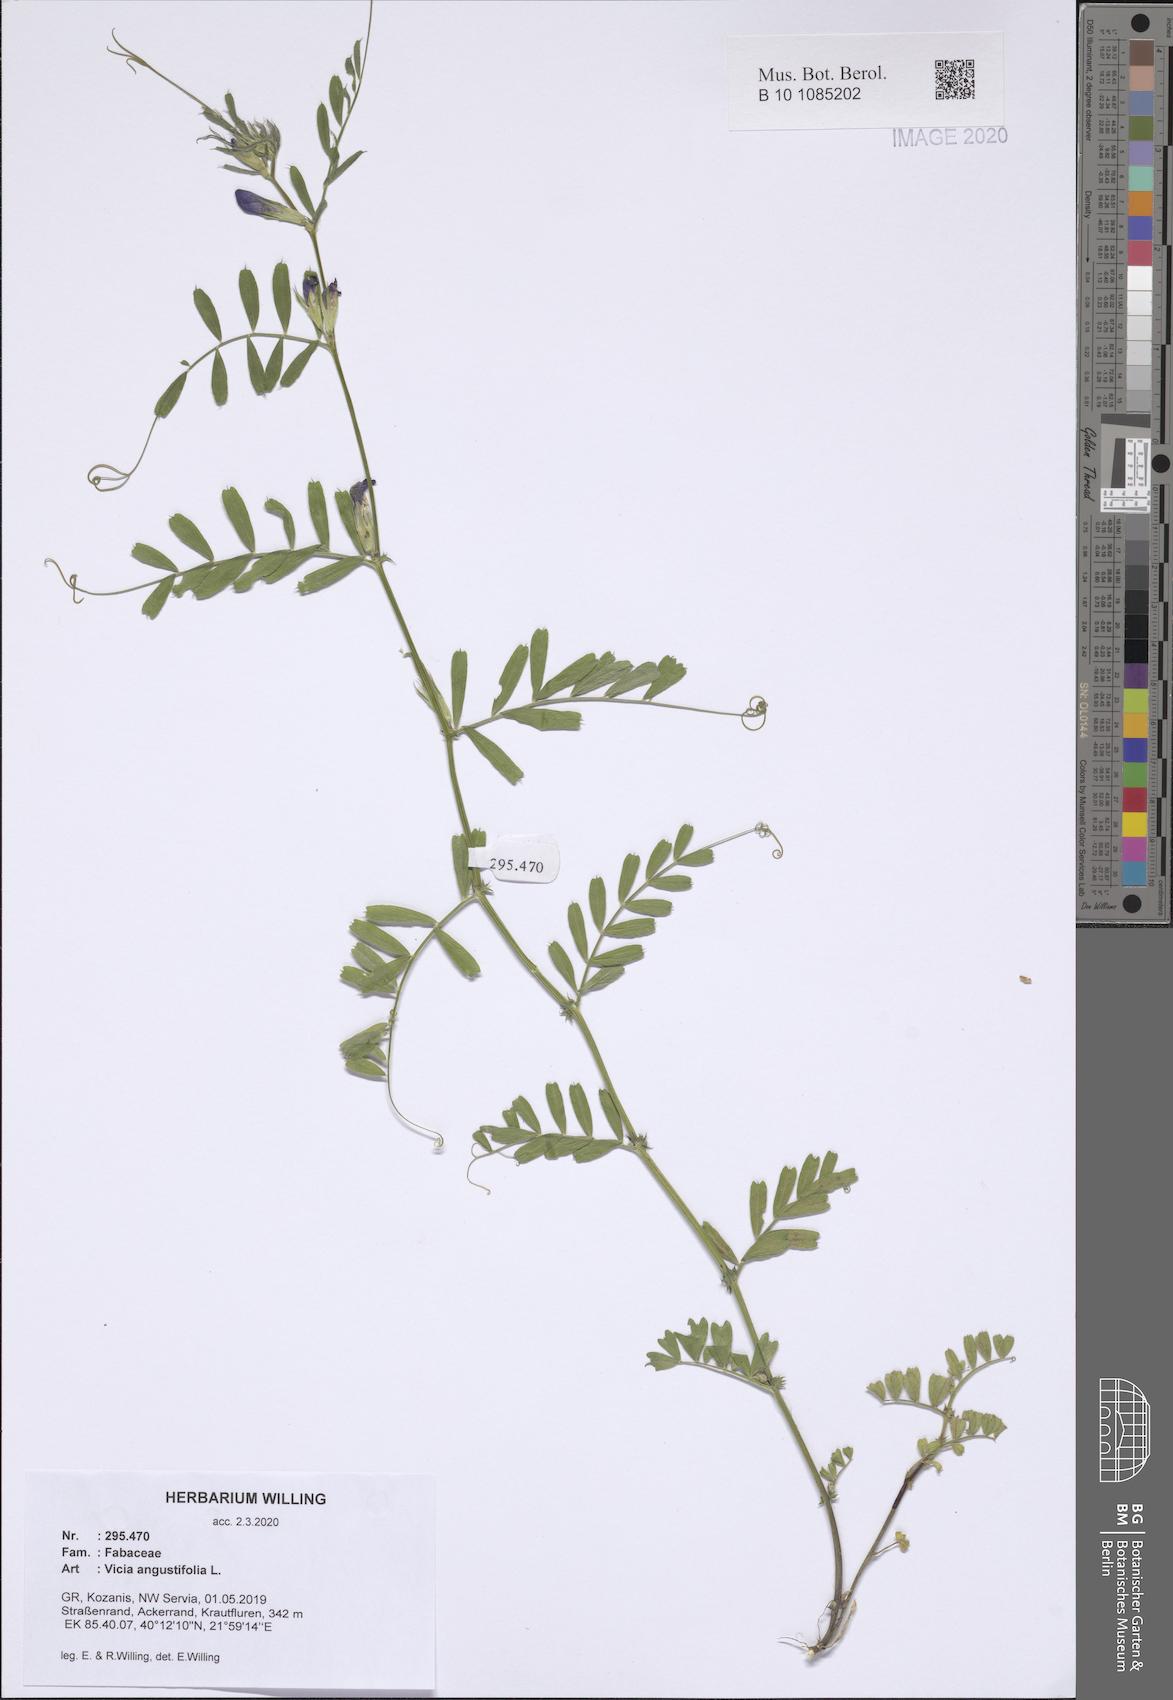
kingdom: Plantae
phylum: Tracheophyta
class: Magnoliopsida
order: Fabales
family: Fabaceae
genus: Vicia
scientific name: Vicia sativa
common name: Garden vetch
